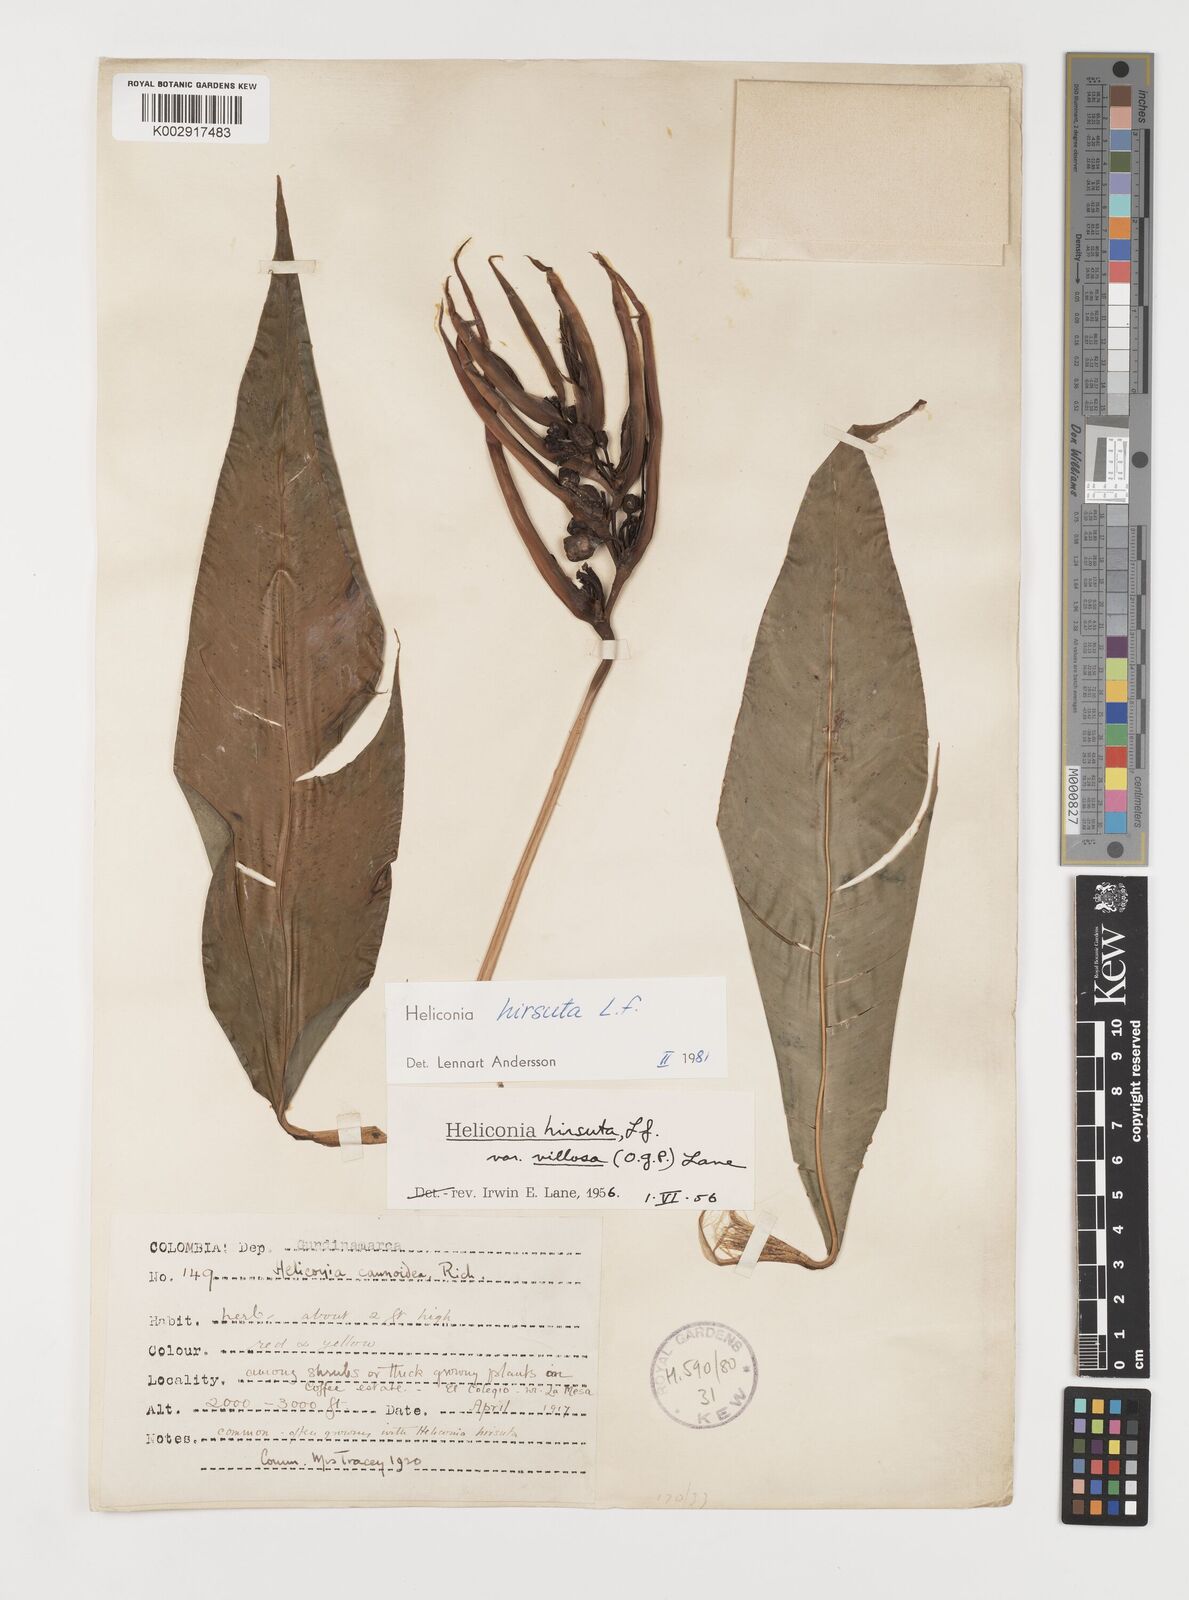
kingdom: Plantae
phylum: Tracheophyta
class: Liliopsida
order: Zingiberales
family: Heliconiaceae
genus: Heliconia
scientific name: Heliconia schiedeana
